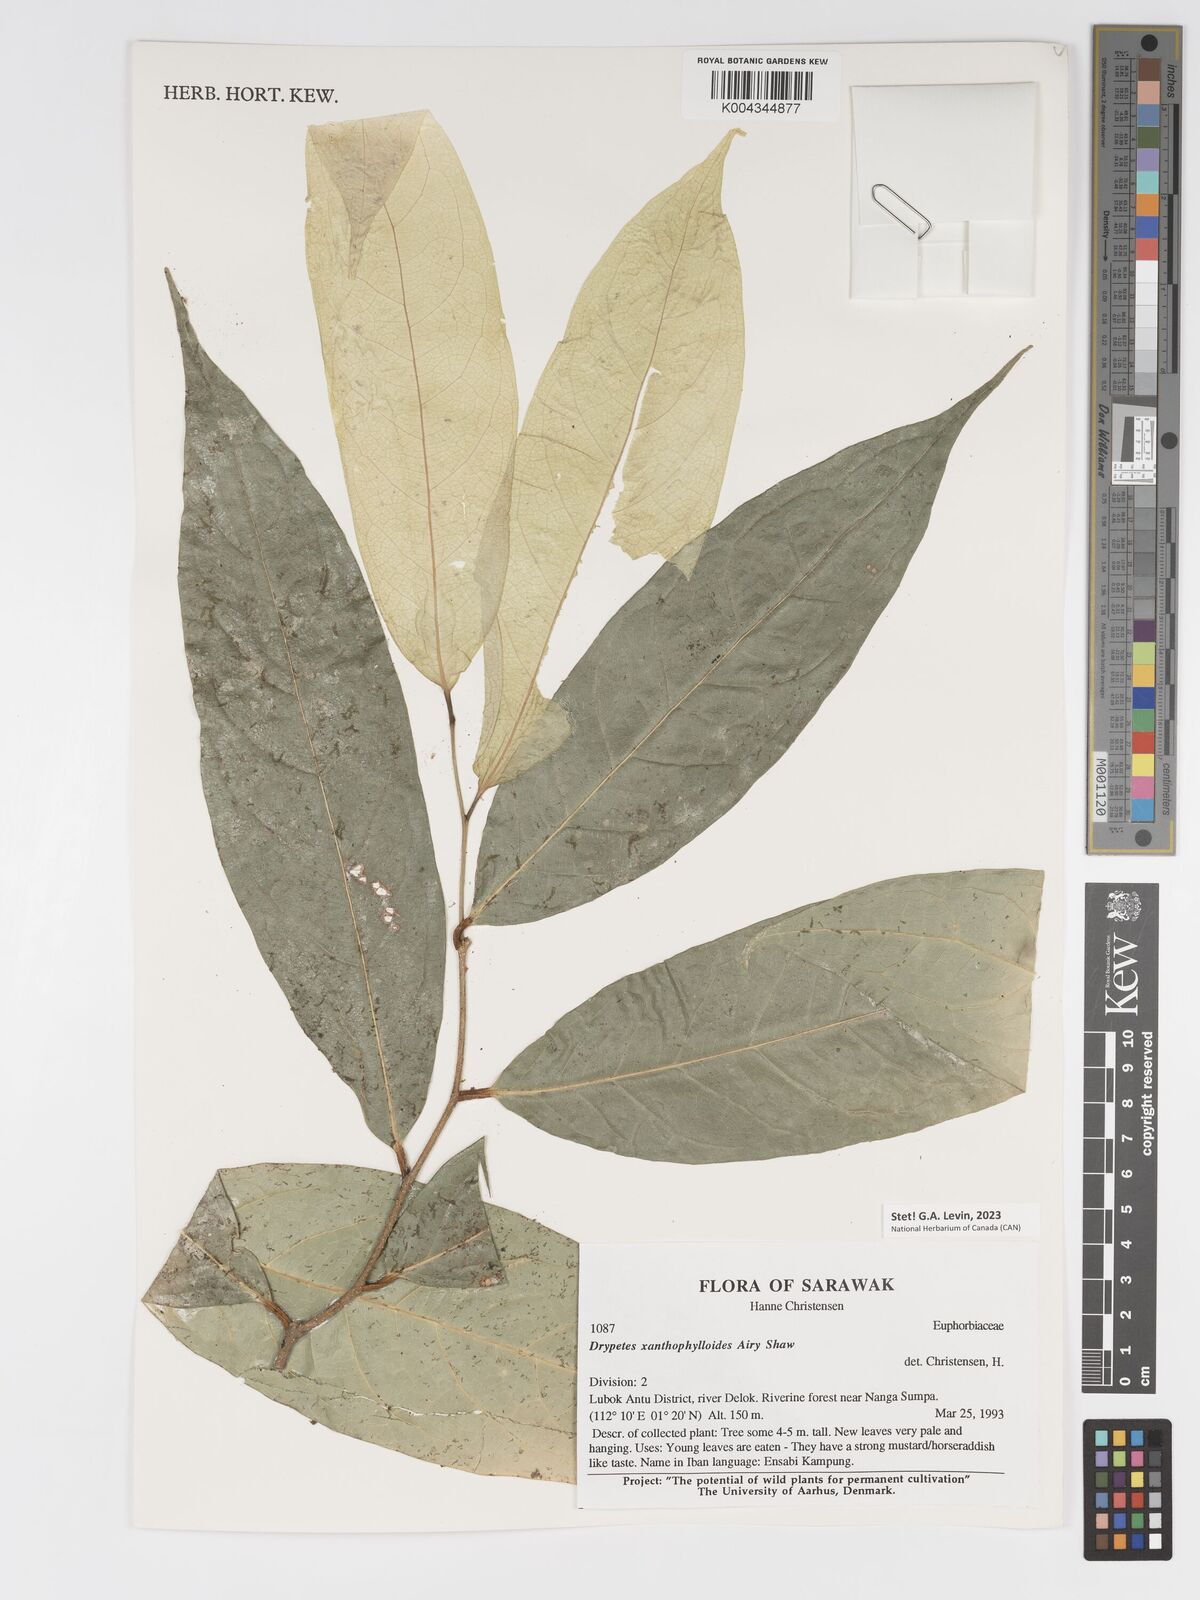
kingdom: Plantae
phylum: Tracheophyta
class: Magnoliopsida
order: Malpighiales
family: Putranjivaceae
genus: Drypetes
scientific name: Drypetes xanthophylloides
